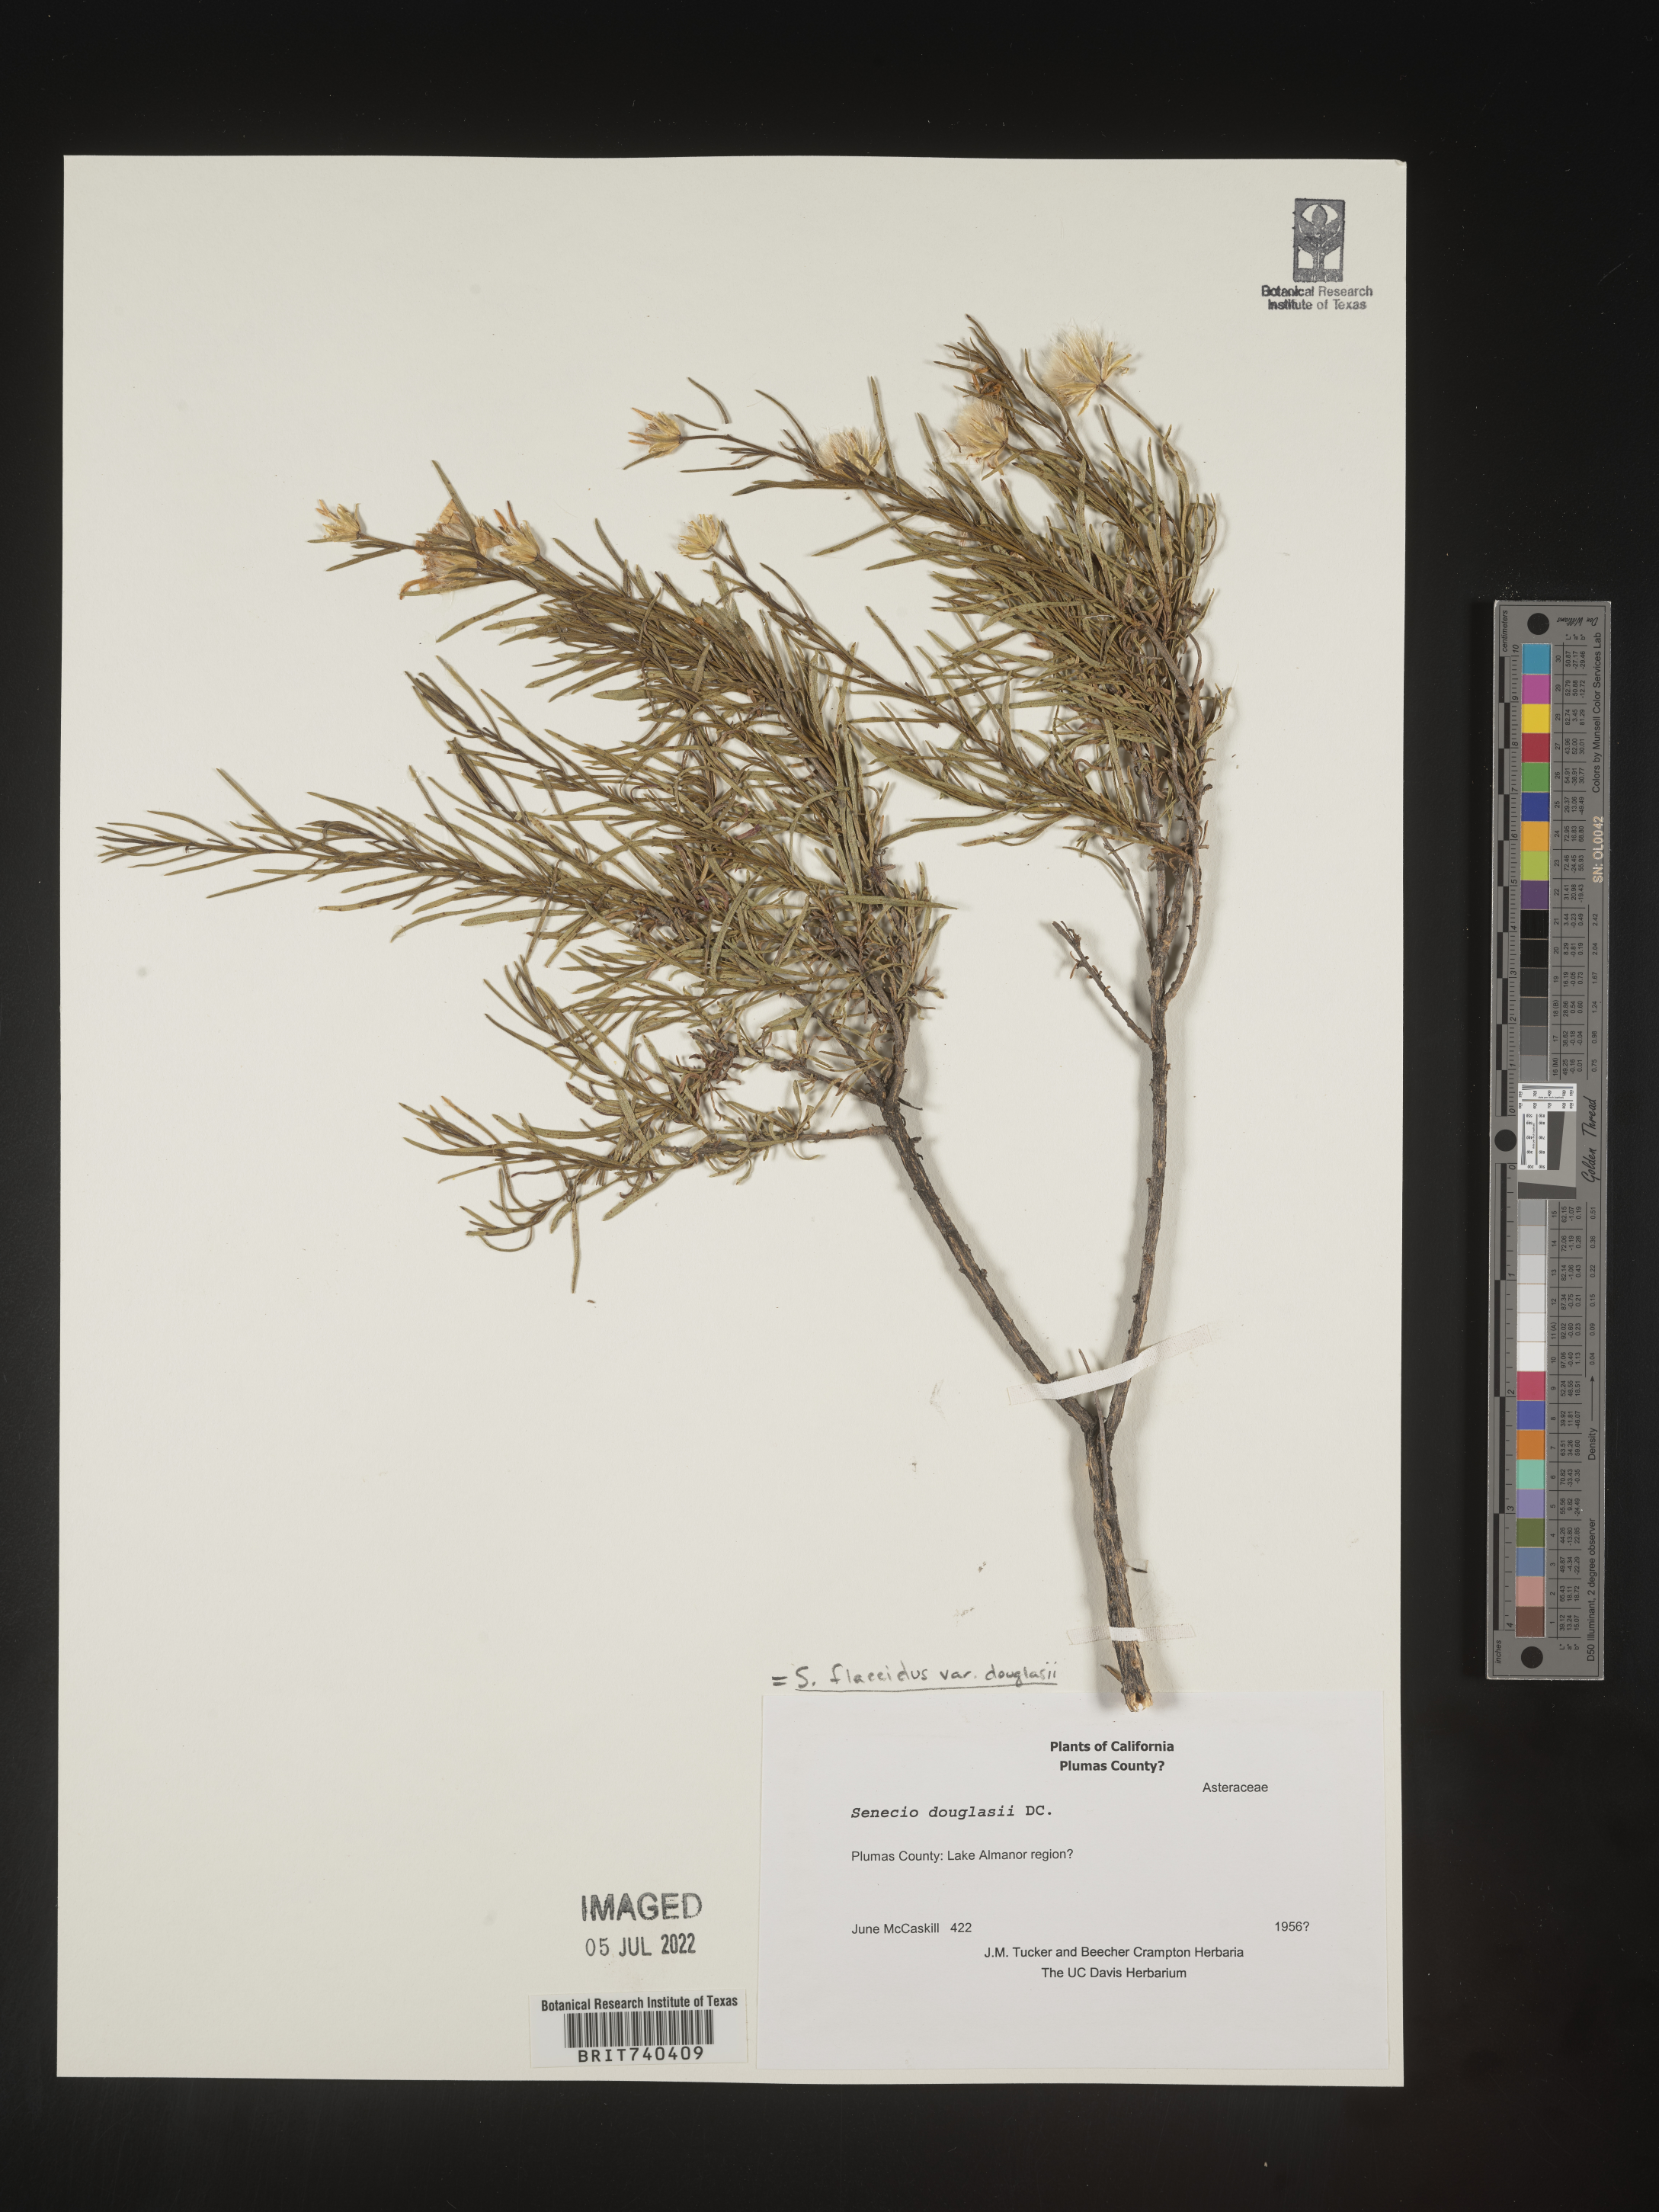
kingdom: Plantae
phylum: Tracheophyta
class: Magnoliopsida
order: Asterales
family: Asteraceae
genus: Senecio
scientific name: Senecio flaccidus
